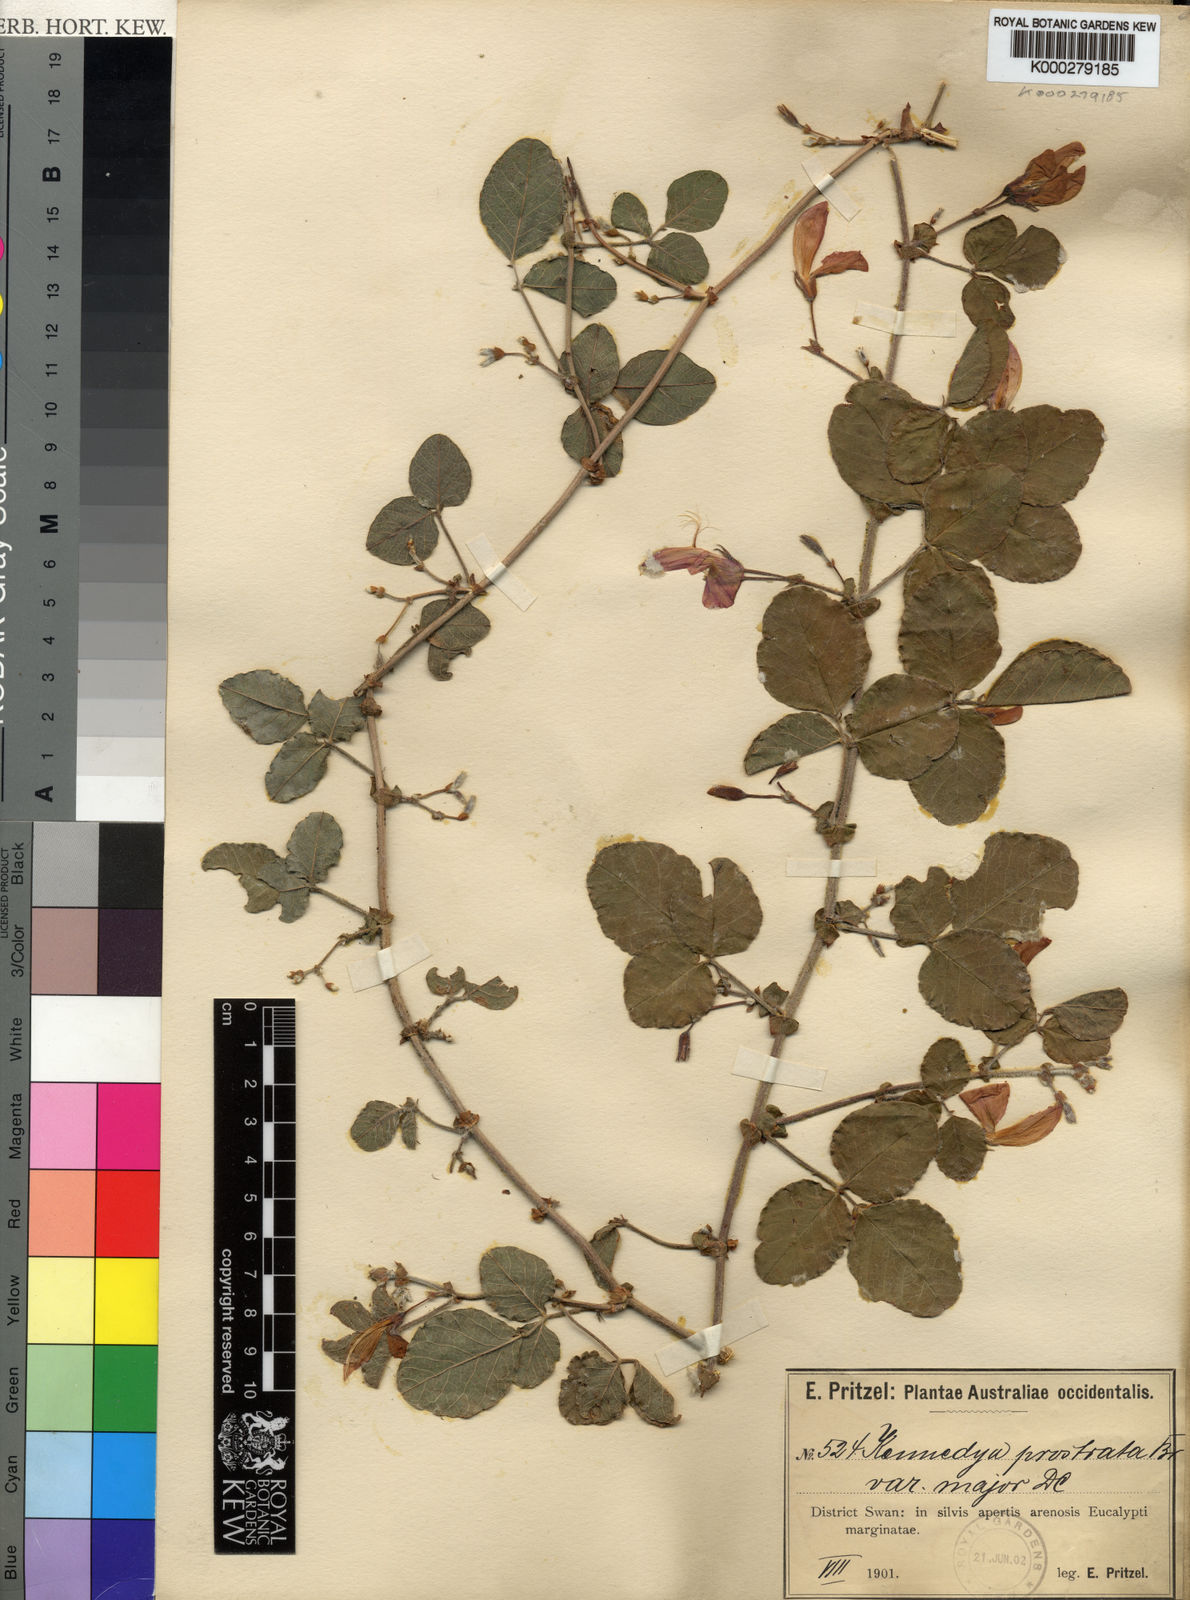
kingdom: Plantae
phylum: Tracheophyta
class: Magnoliopsida
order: Fabales
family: Fabaceae
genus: Kennedia
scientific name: Kennedia prostrata
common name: Running-postman
